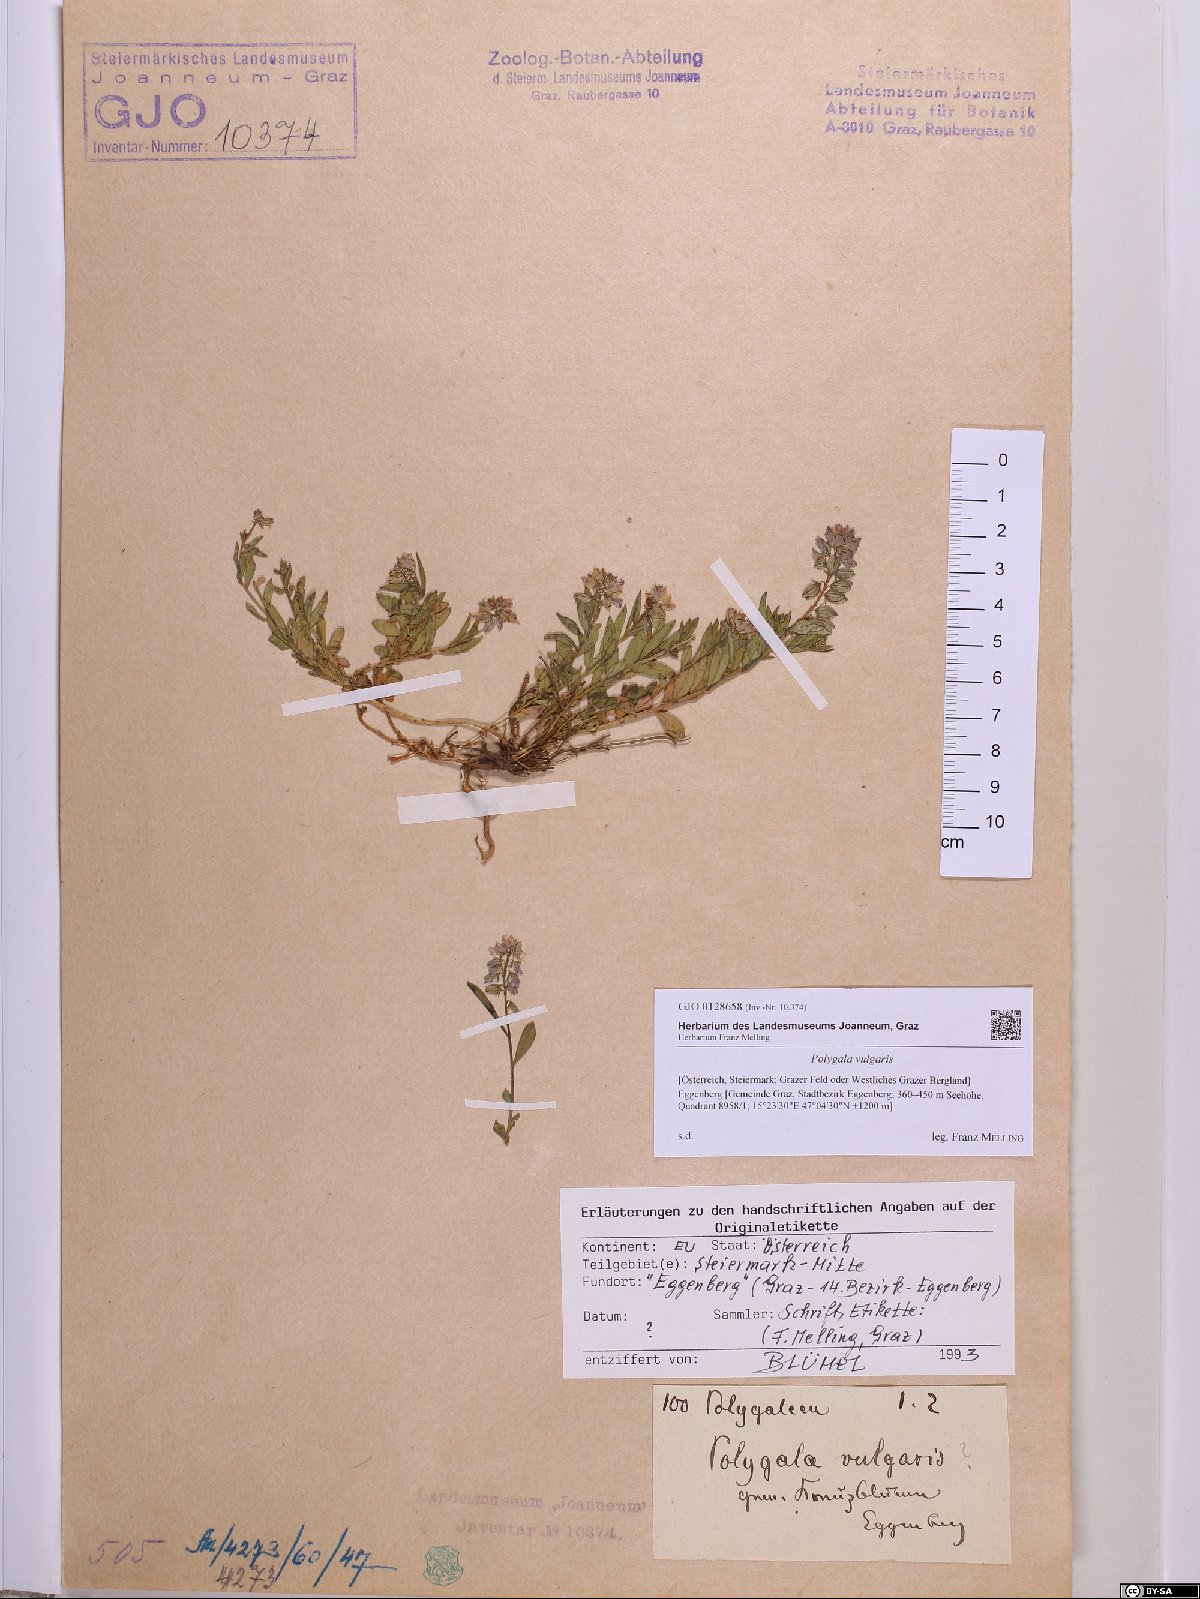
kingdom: Plantae
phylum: Tracheophyta
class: Magnoliopsida
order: Fabales
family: Polygalaceae
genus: Polygala
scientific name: Polygala vulgaris
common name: Common milkwort
